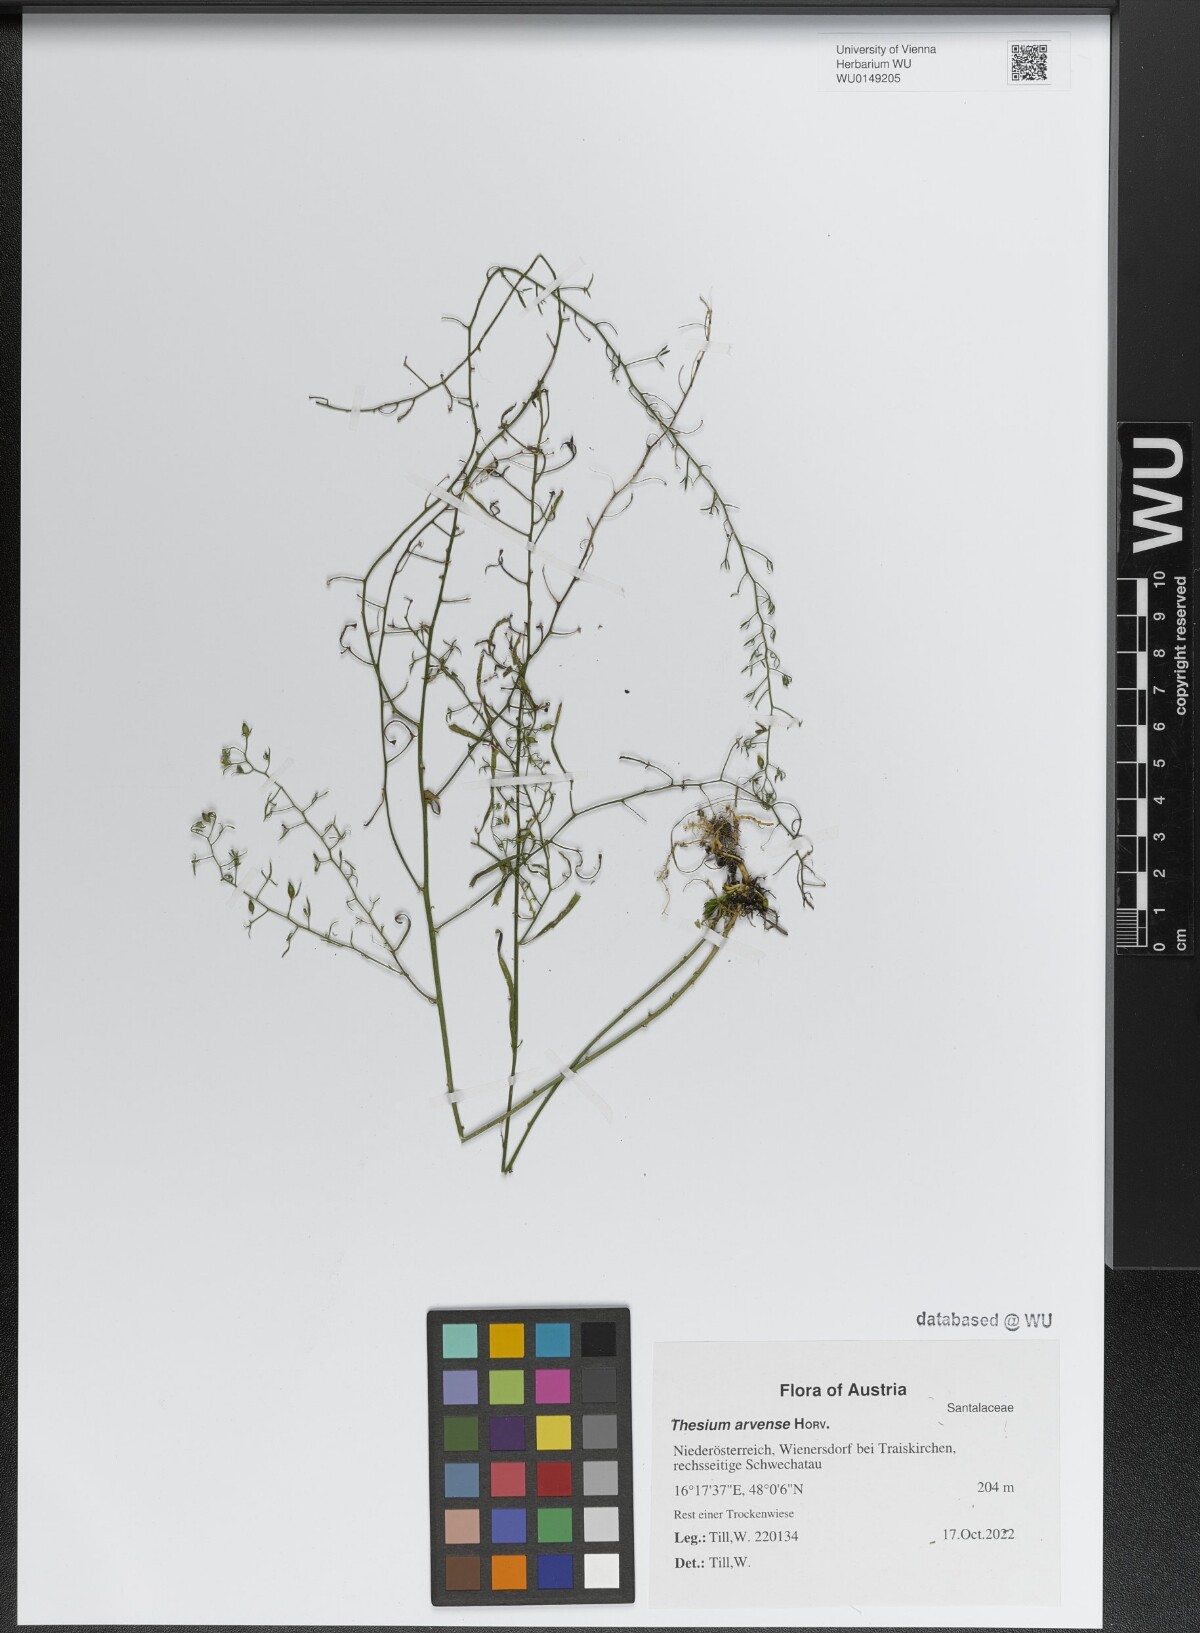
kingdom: Plantae
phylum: Tracheophyta
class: Magnoliopsida
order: Santalales
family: Thesiaceae
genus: Thesium
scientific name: Thesium
